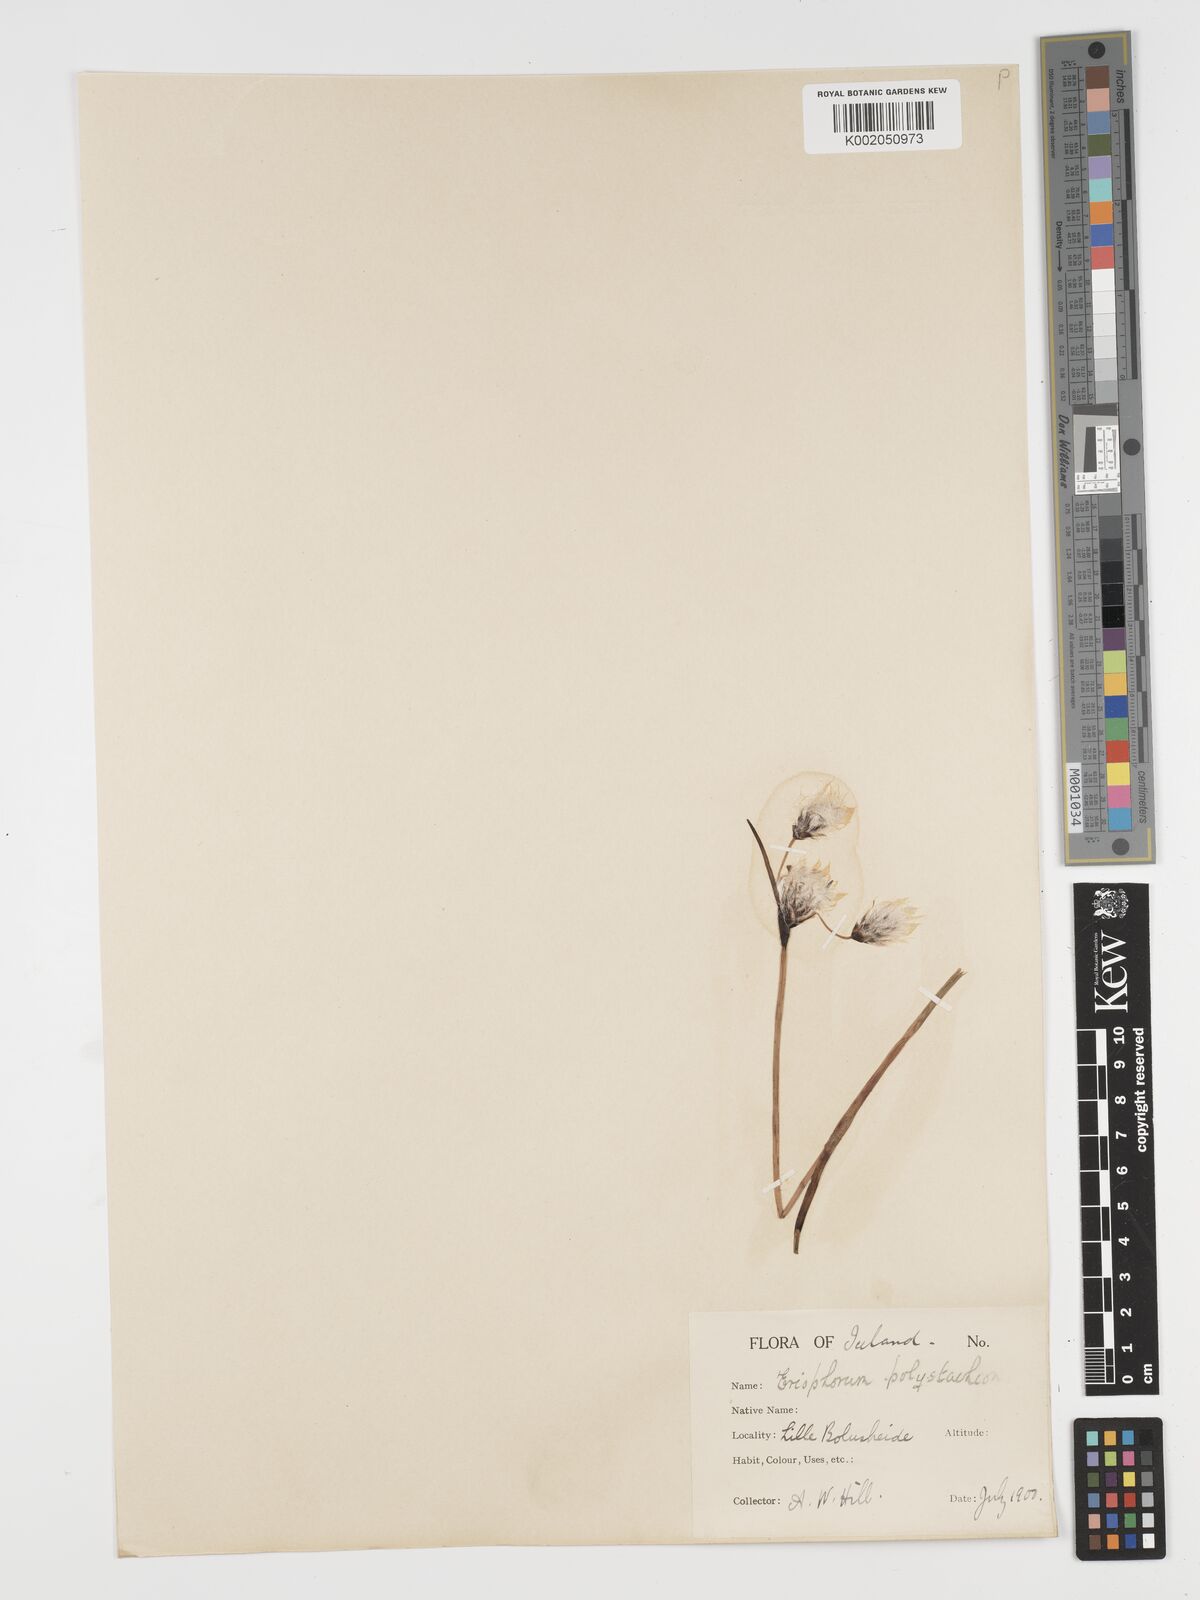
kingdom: Plantae
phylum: Tracheophyta
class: Liliopsida
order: Poales
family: Cyperaceae
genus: Eriophorum
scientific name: Eriophorum angustifolium
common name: Common cottongrass
